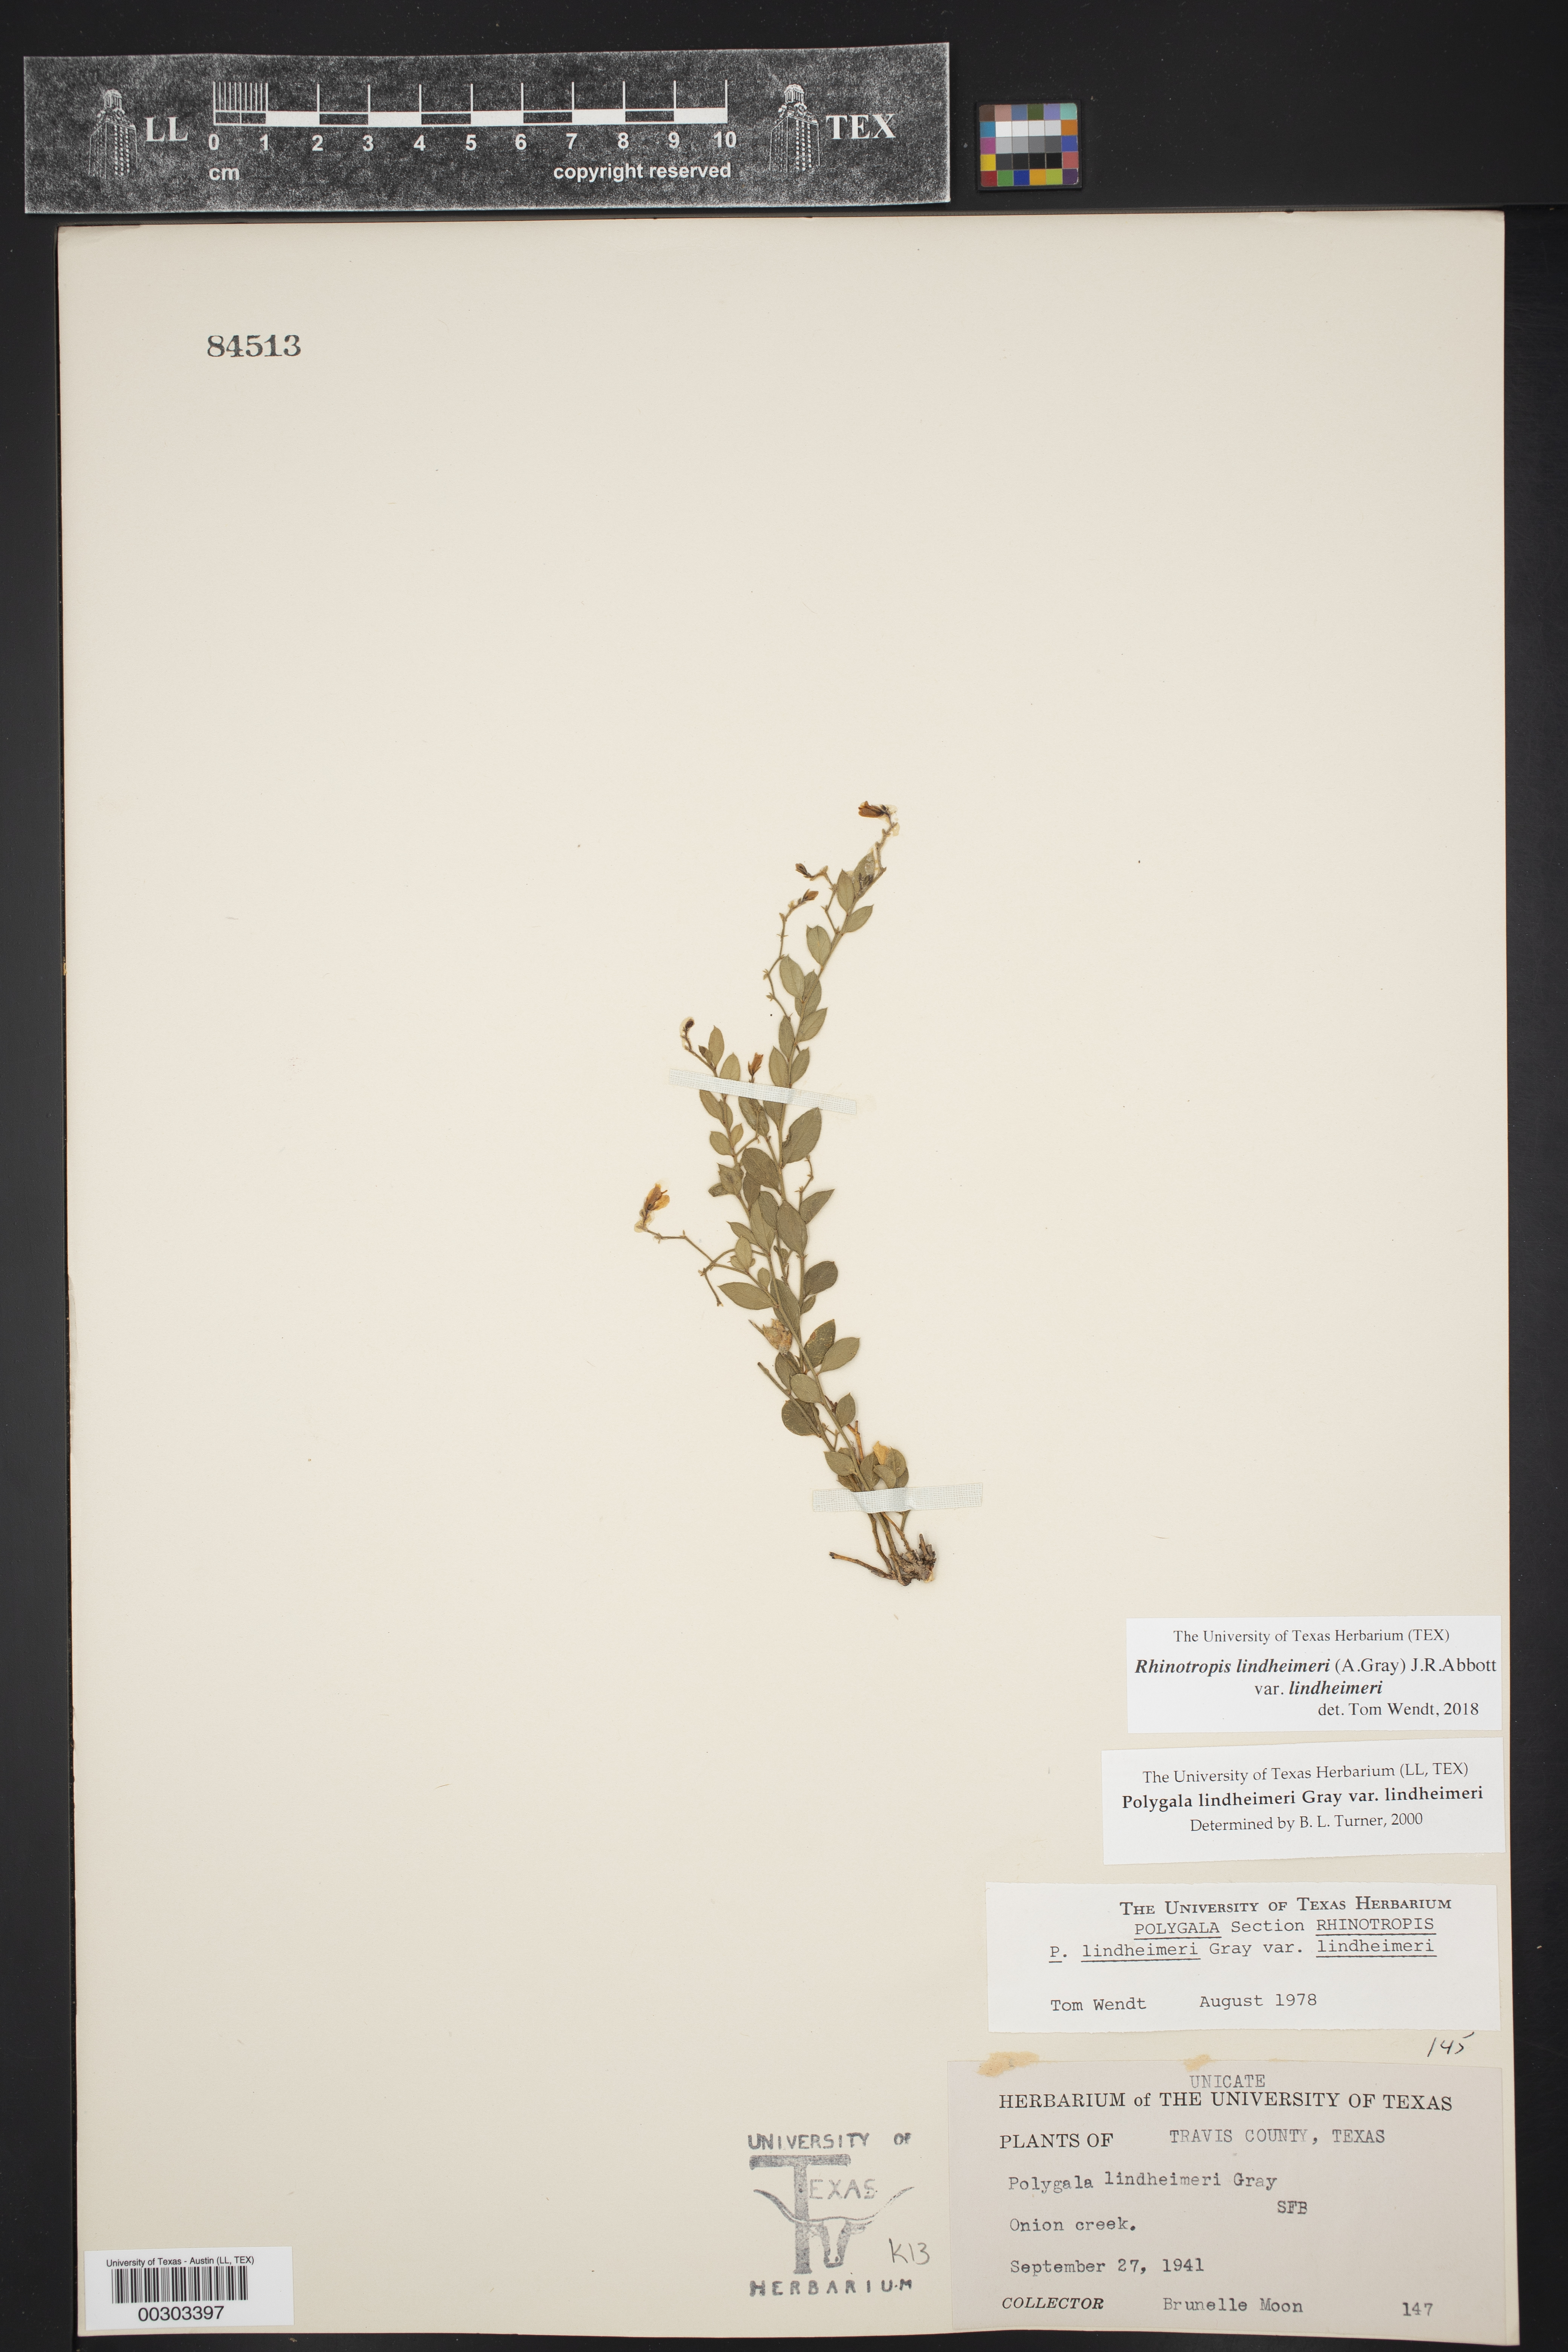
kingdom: Plantae
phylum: Tracheophyta
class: Magnoliopsida
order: Fabales
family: Polygalaceae
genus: Rhinotropis
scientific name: Rhinotropis lindheimeri
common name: Shrubby milkwort
